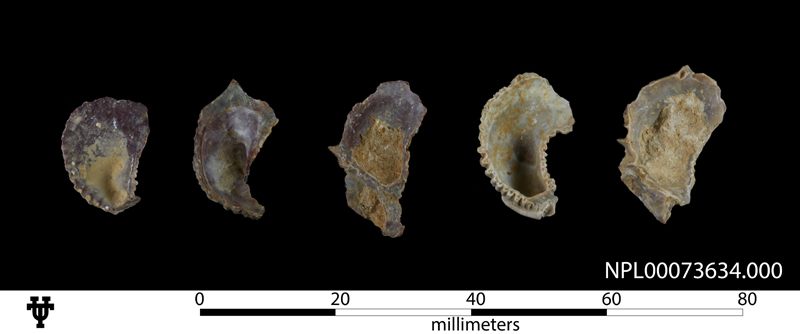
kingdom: Animalia
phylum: Mollusca
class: Bivalvia
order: Ostreida
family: Ostreidae
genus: Ambigostrea
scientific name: Ambigostrea Ostrea tecticosta
